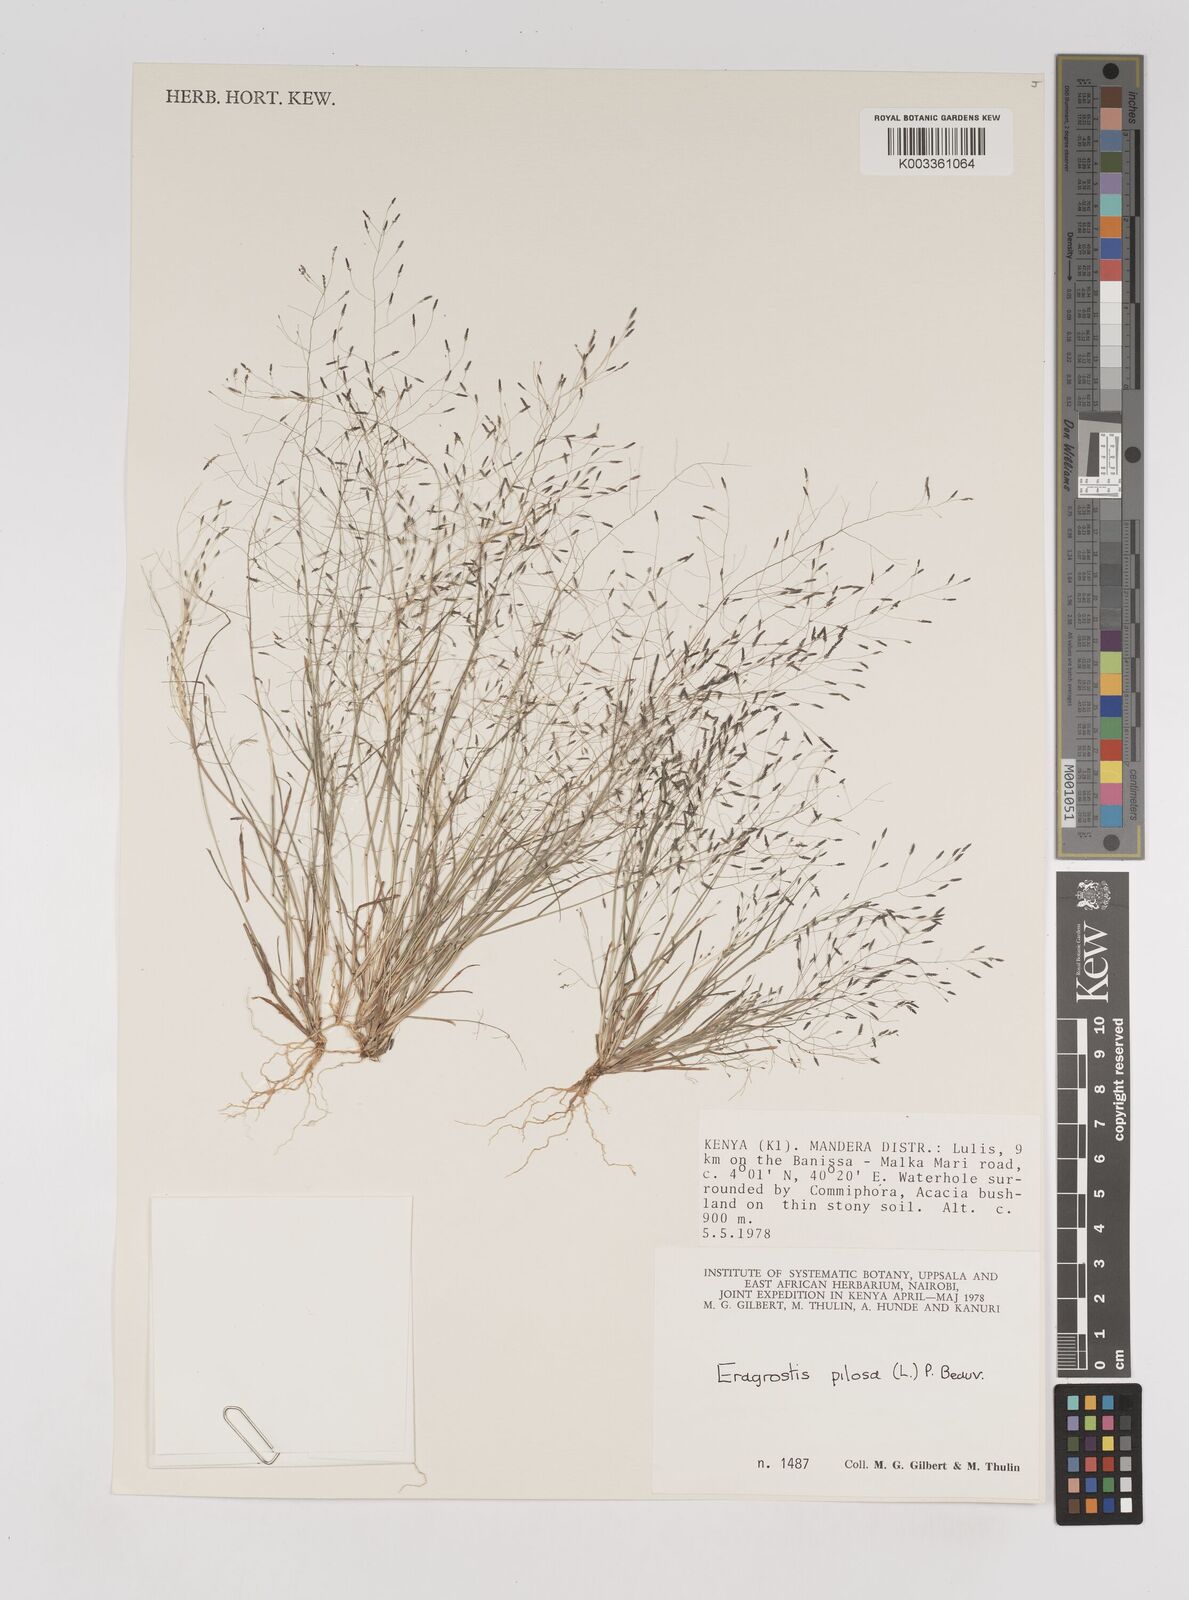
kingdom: Plantae
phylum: Tracheophyta
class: Liliopsida
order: Poales
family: Poaceae
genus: Eragrostis
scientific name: Eragrostis aethiopica
